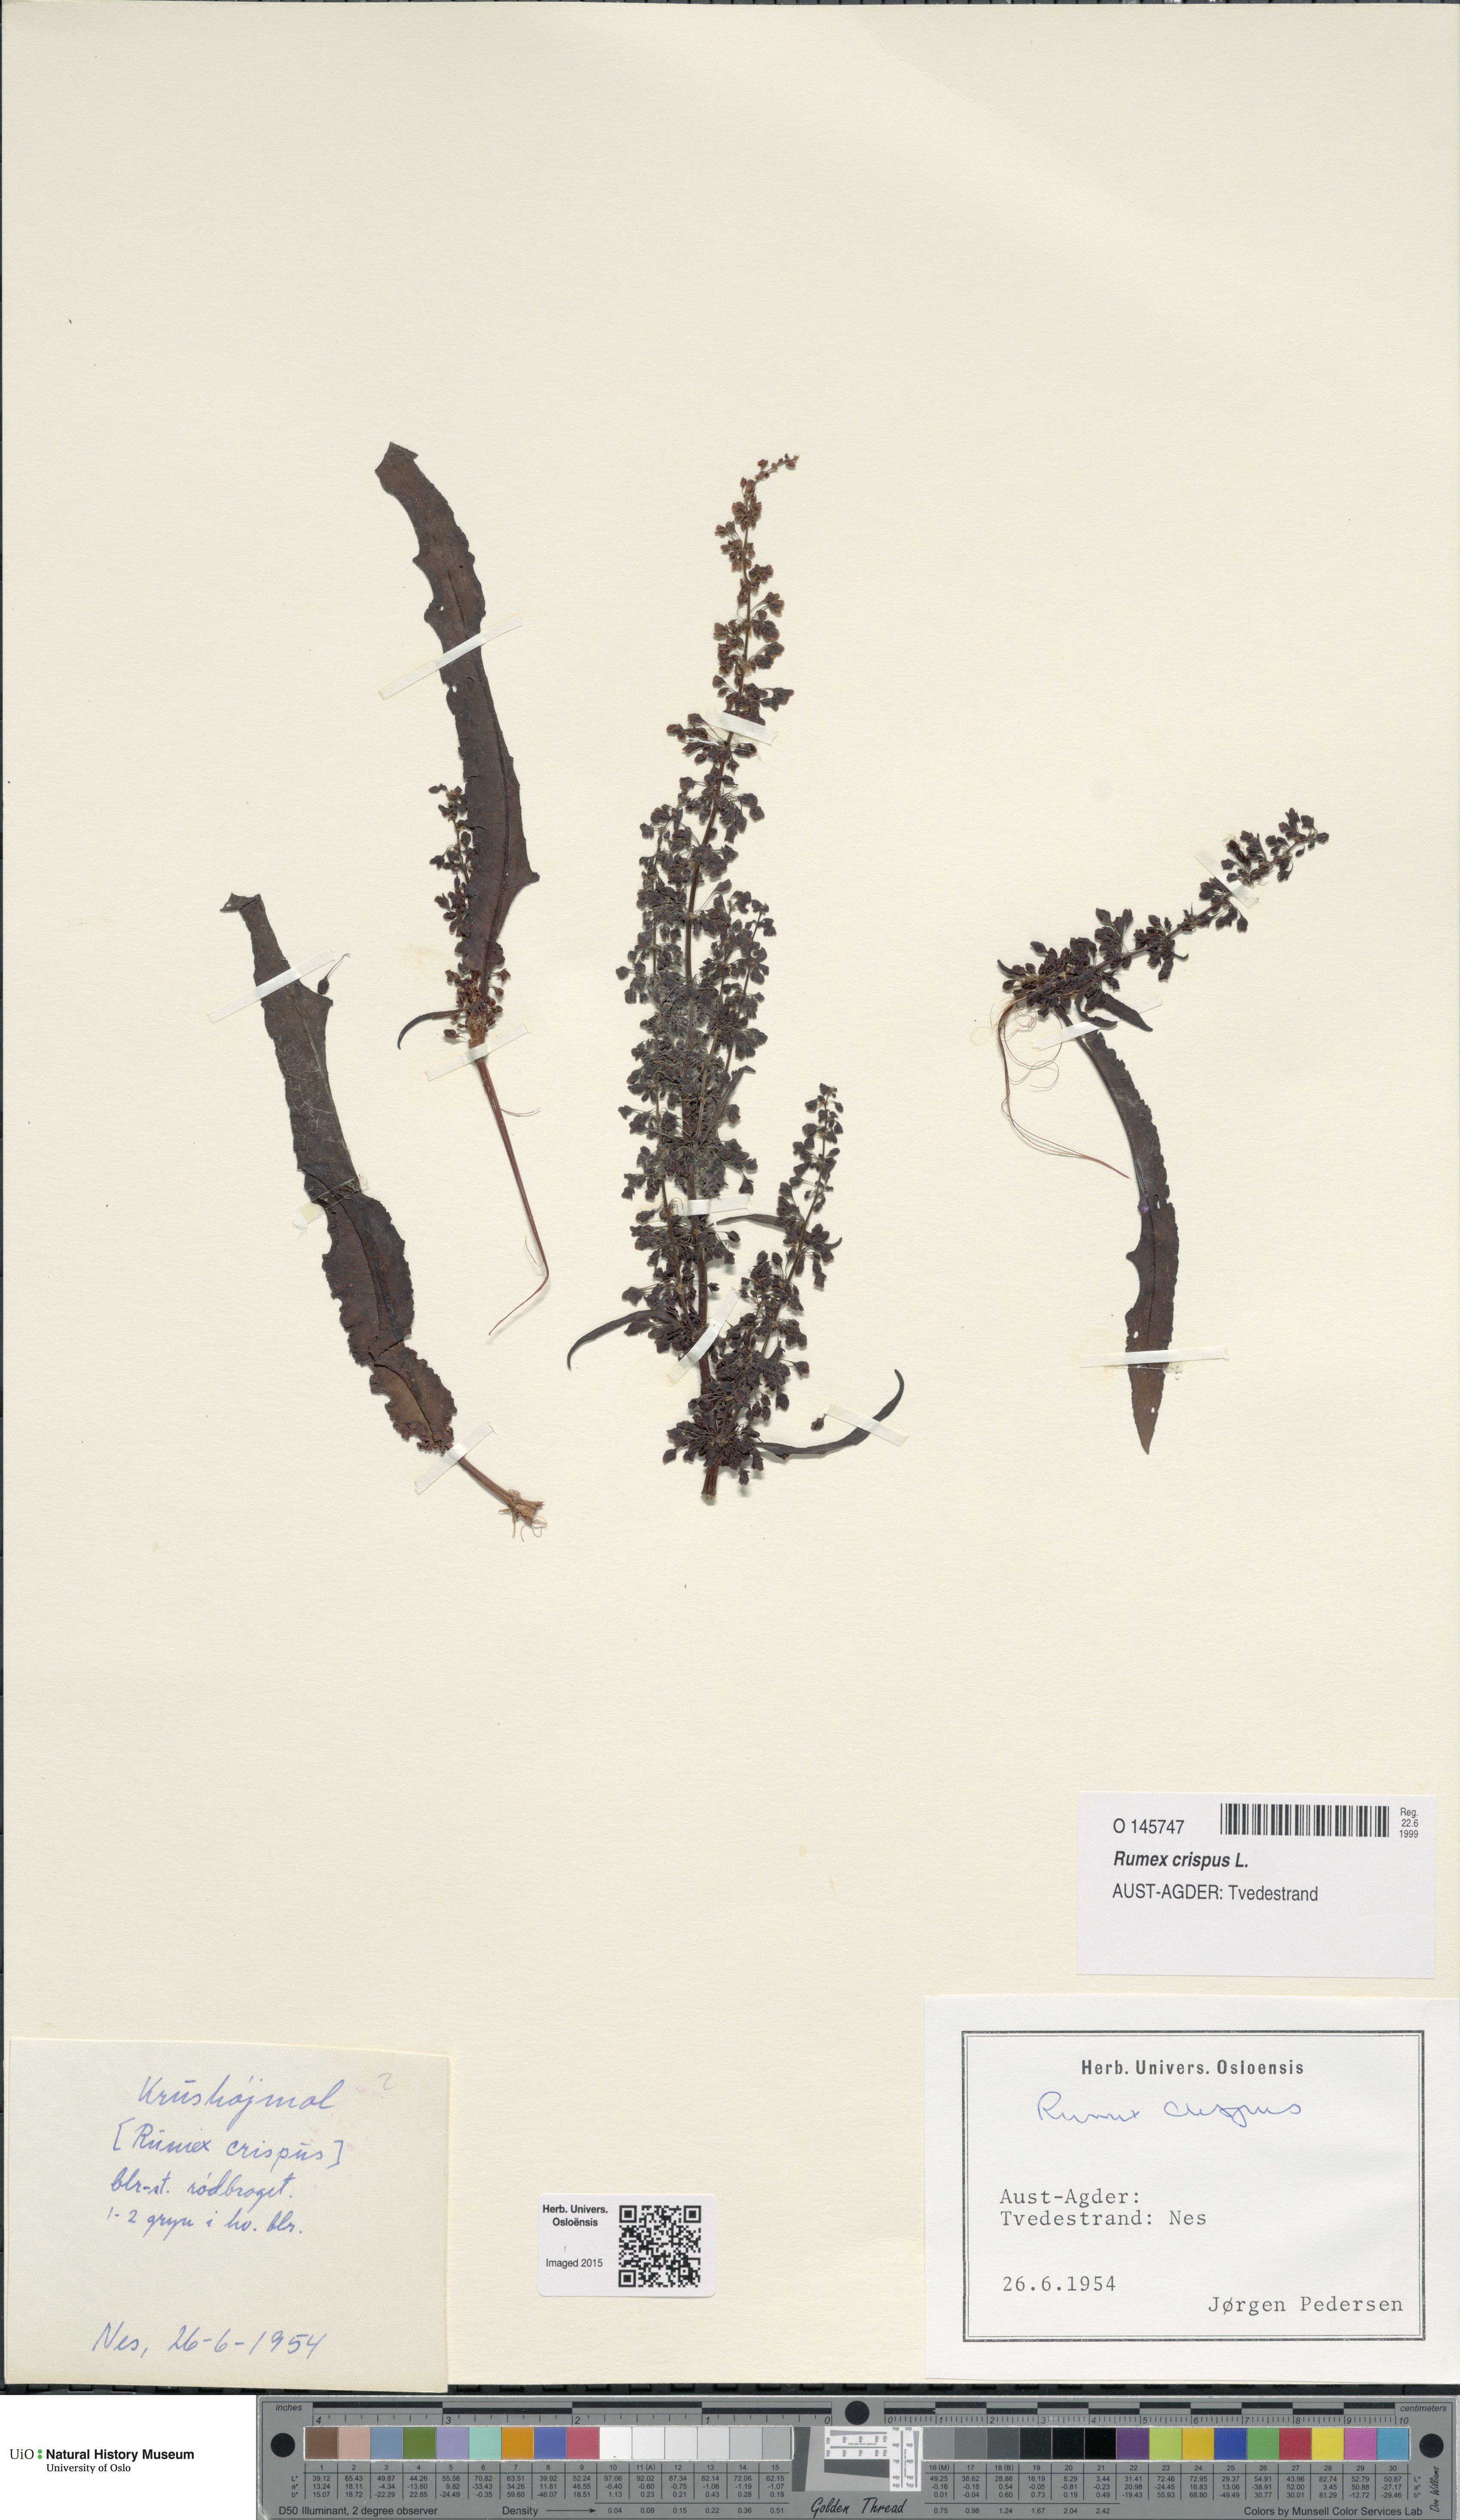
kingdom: Plantae
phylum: Tracheophyta
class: Magnoliopsida
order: Caryophyllales
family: Polygonaceae
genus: Rumex
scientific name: Rumex crispus
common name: Curled dock
